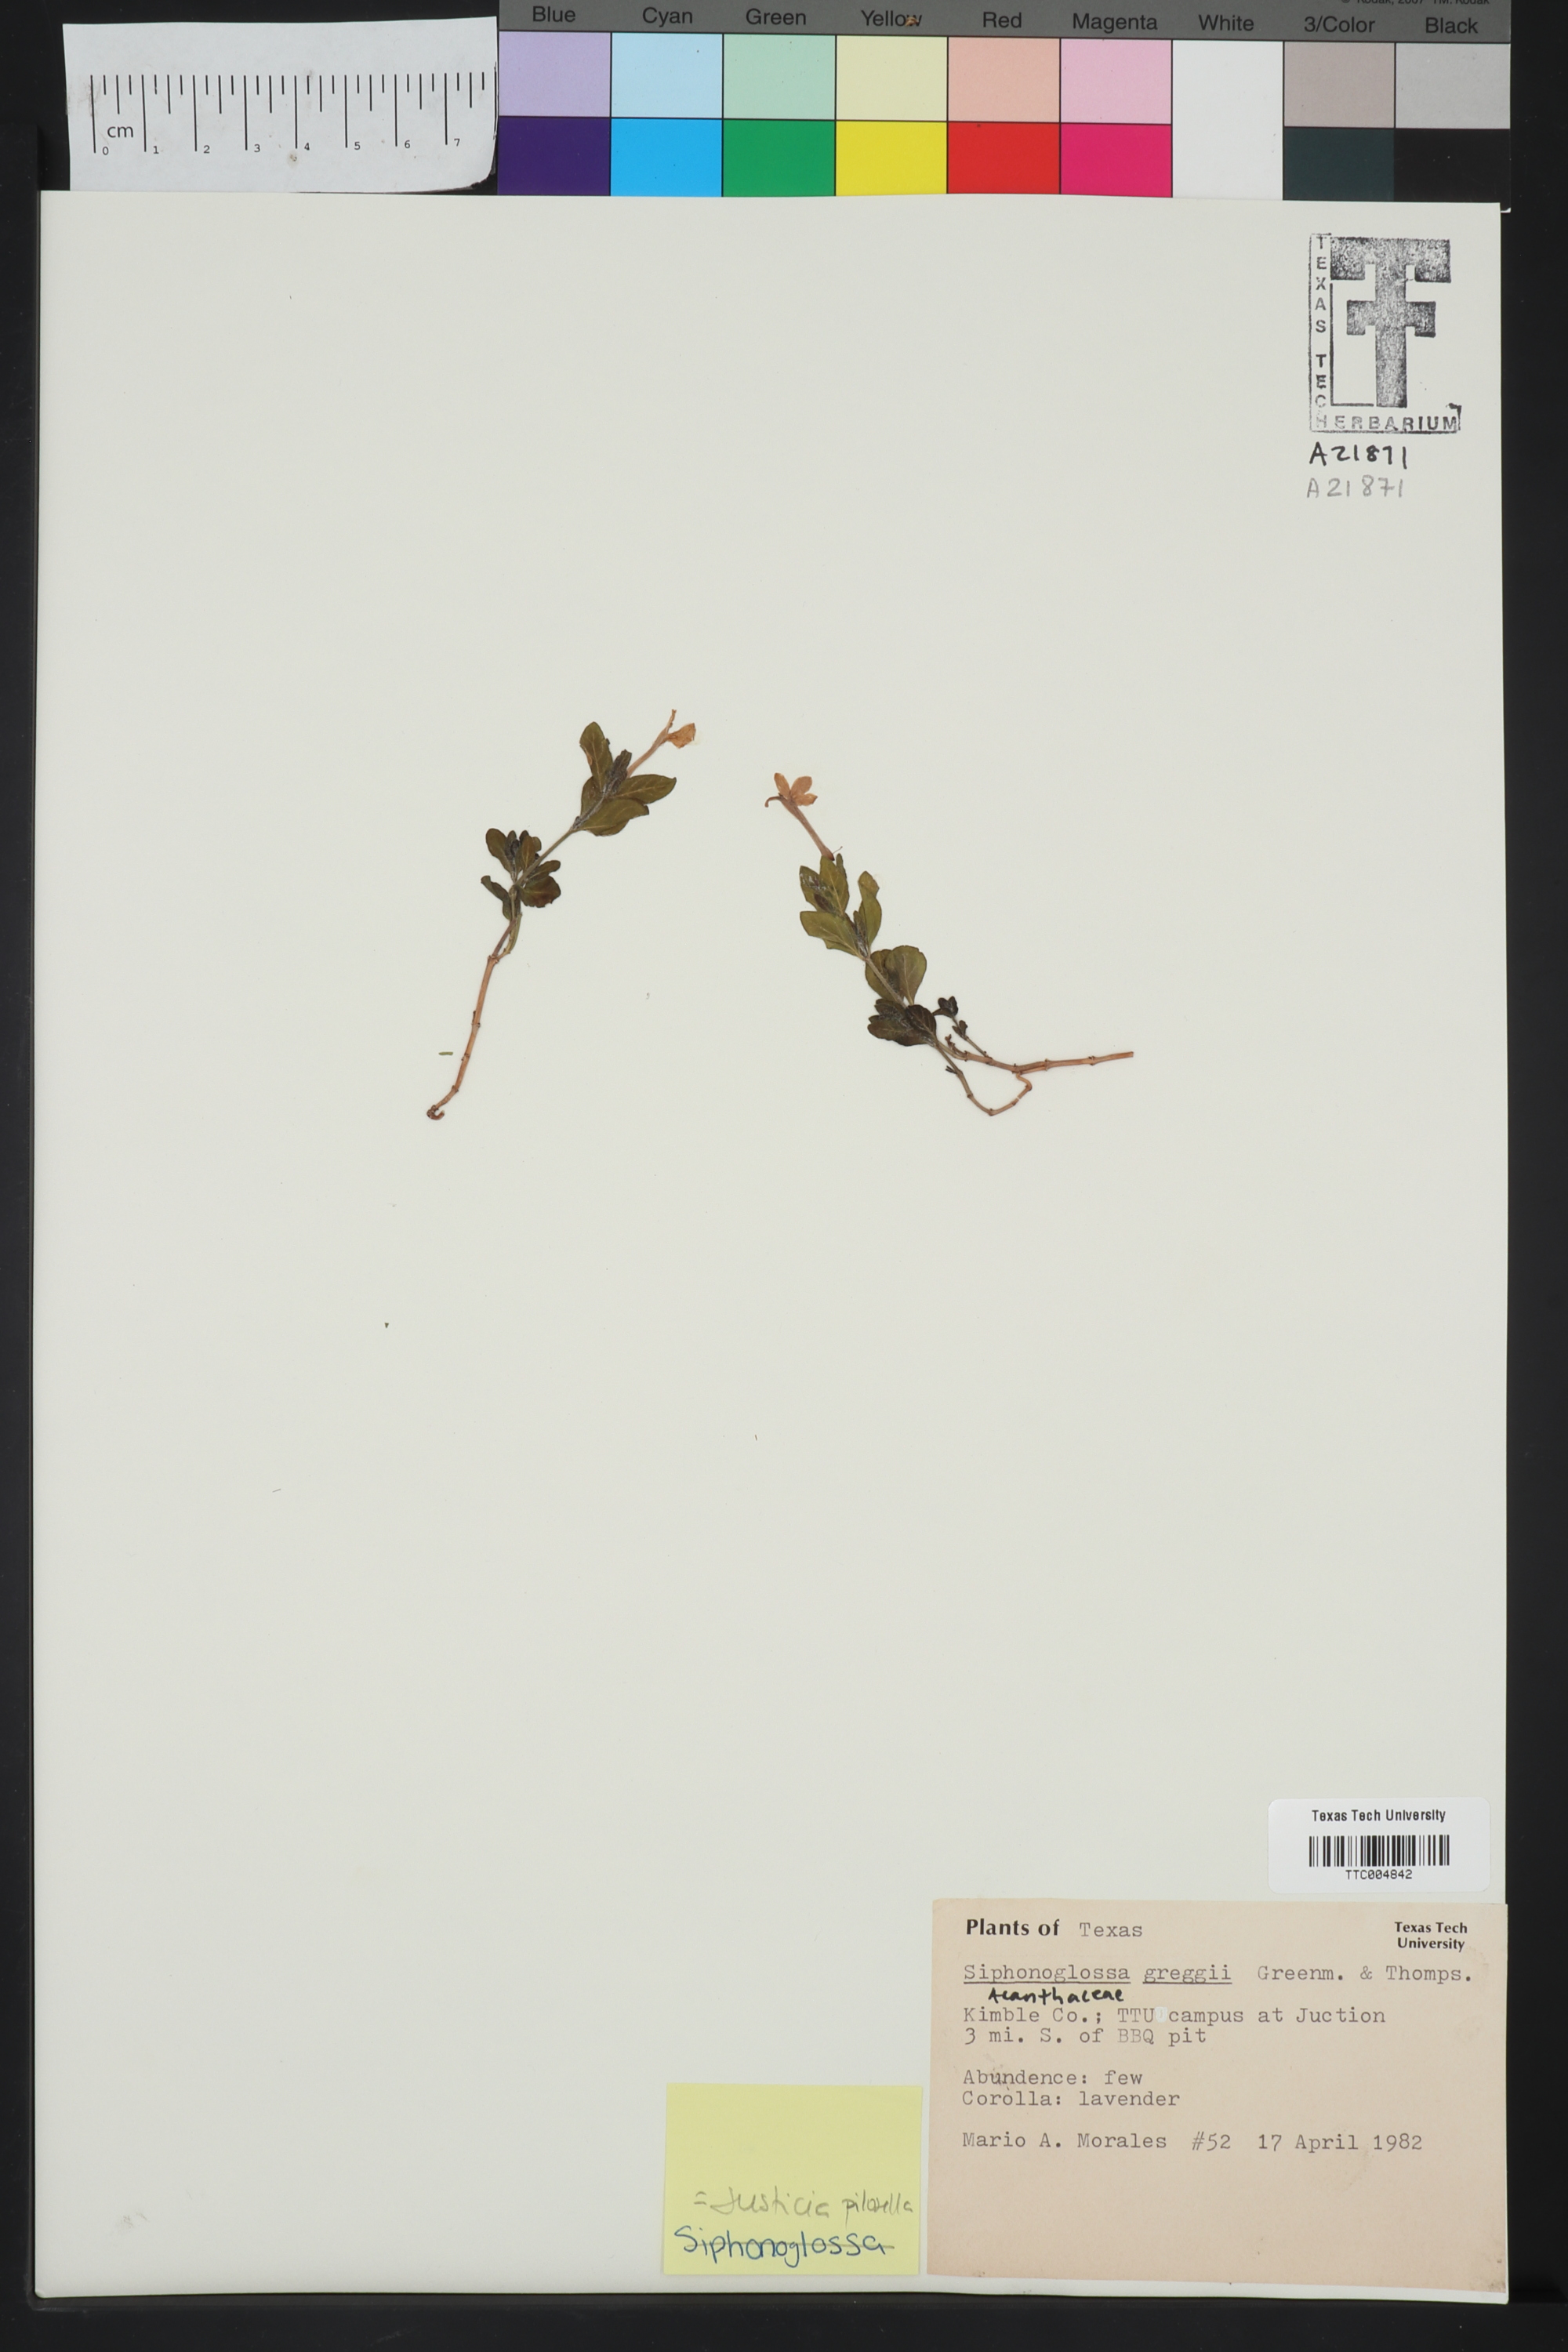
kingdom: Plantae
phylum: Tracheophyta
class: Magnoliopsida
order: Lamiales
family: Acanthaceae
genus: Justicia
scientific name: Justicia pilosella
